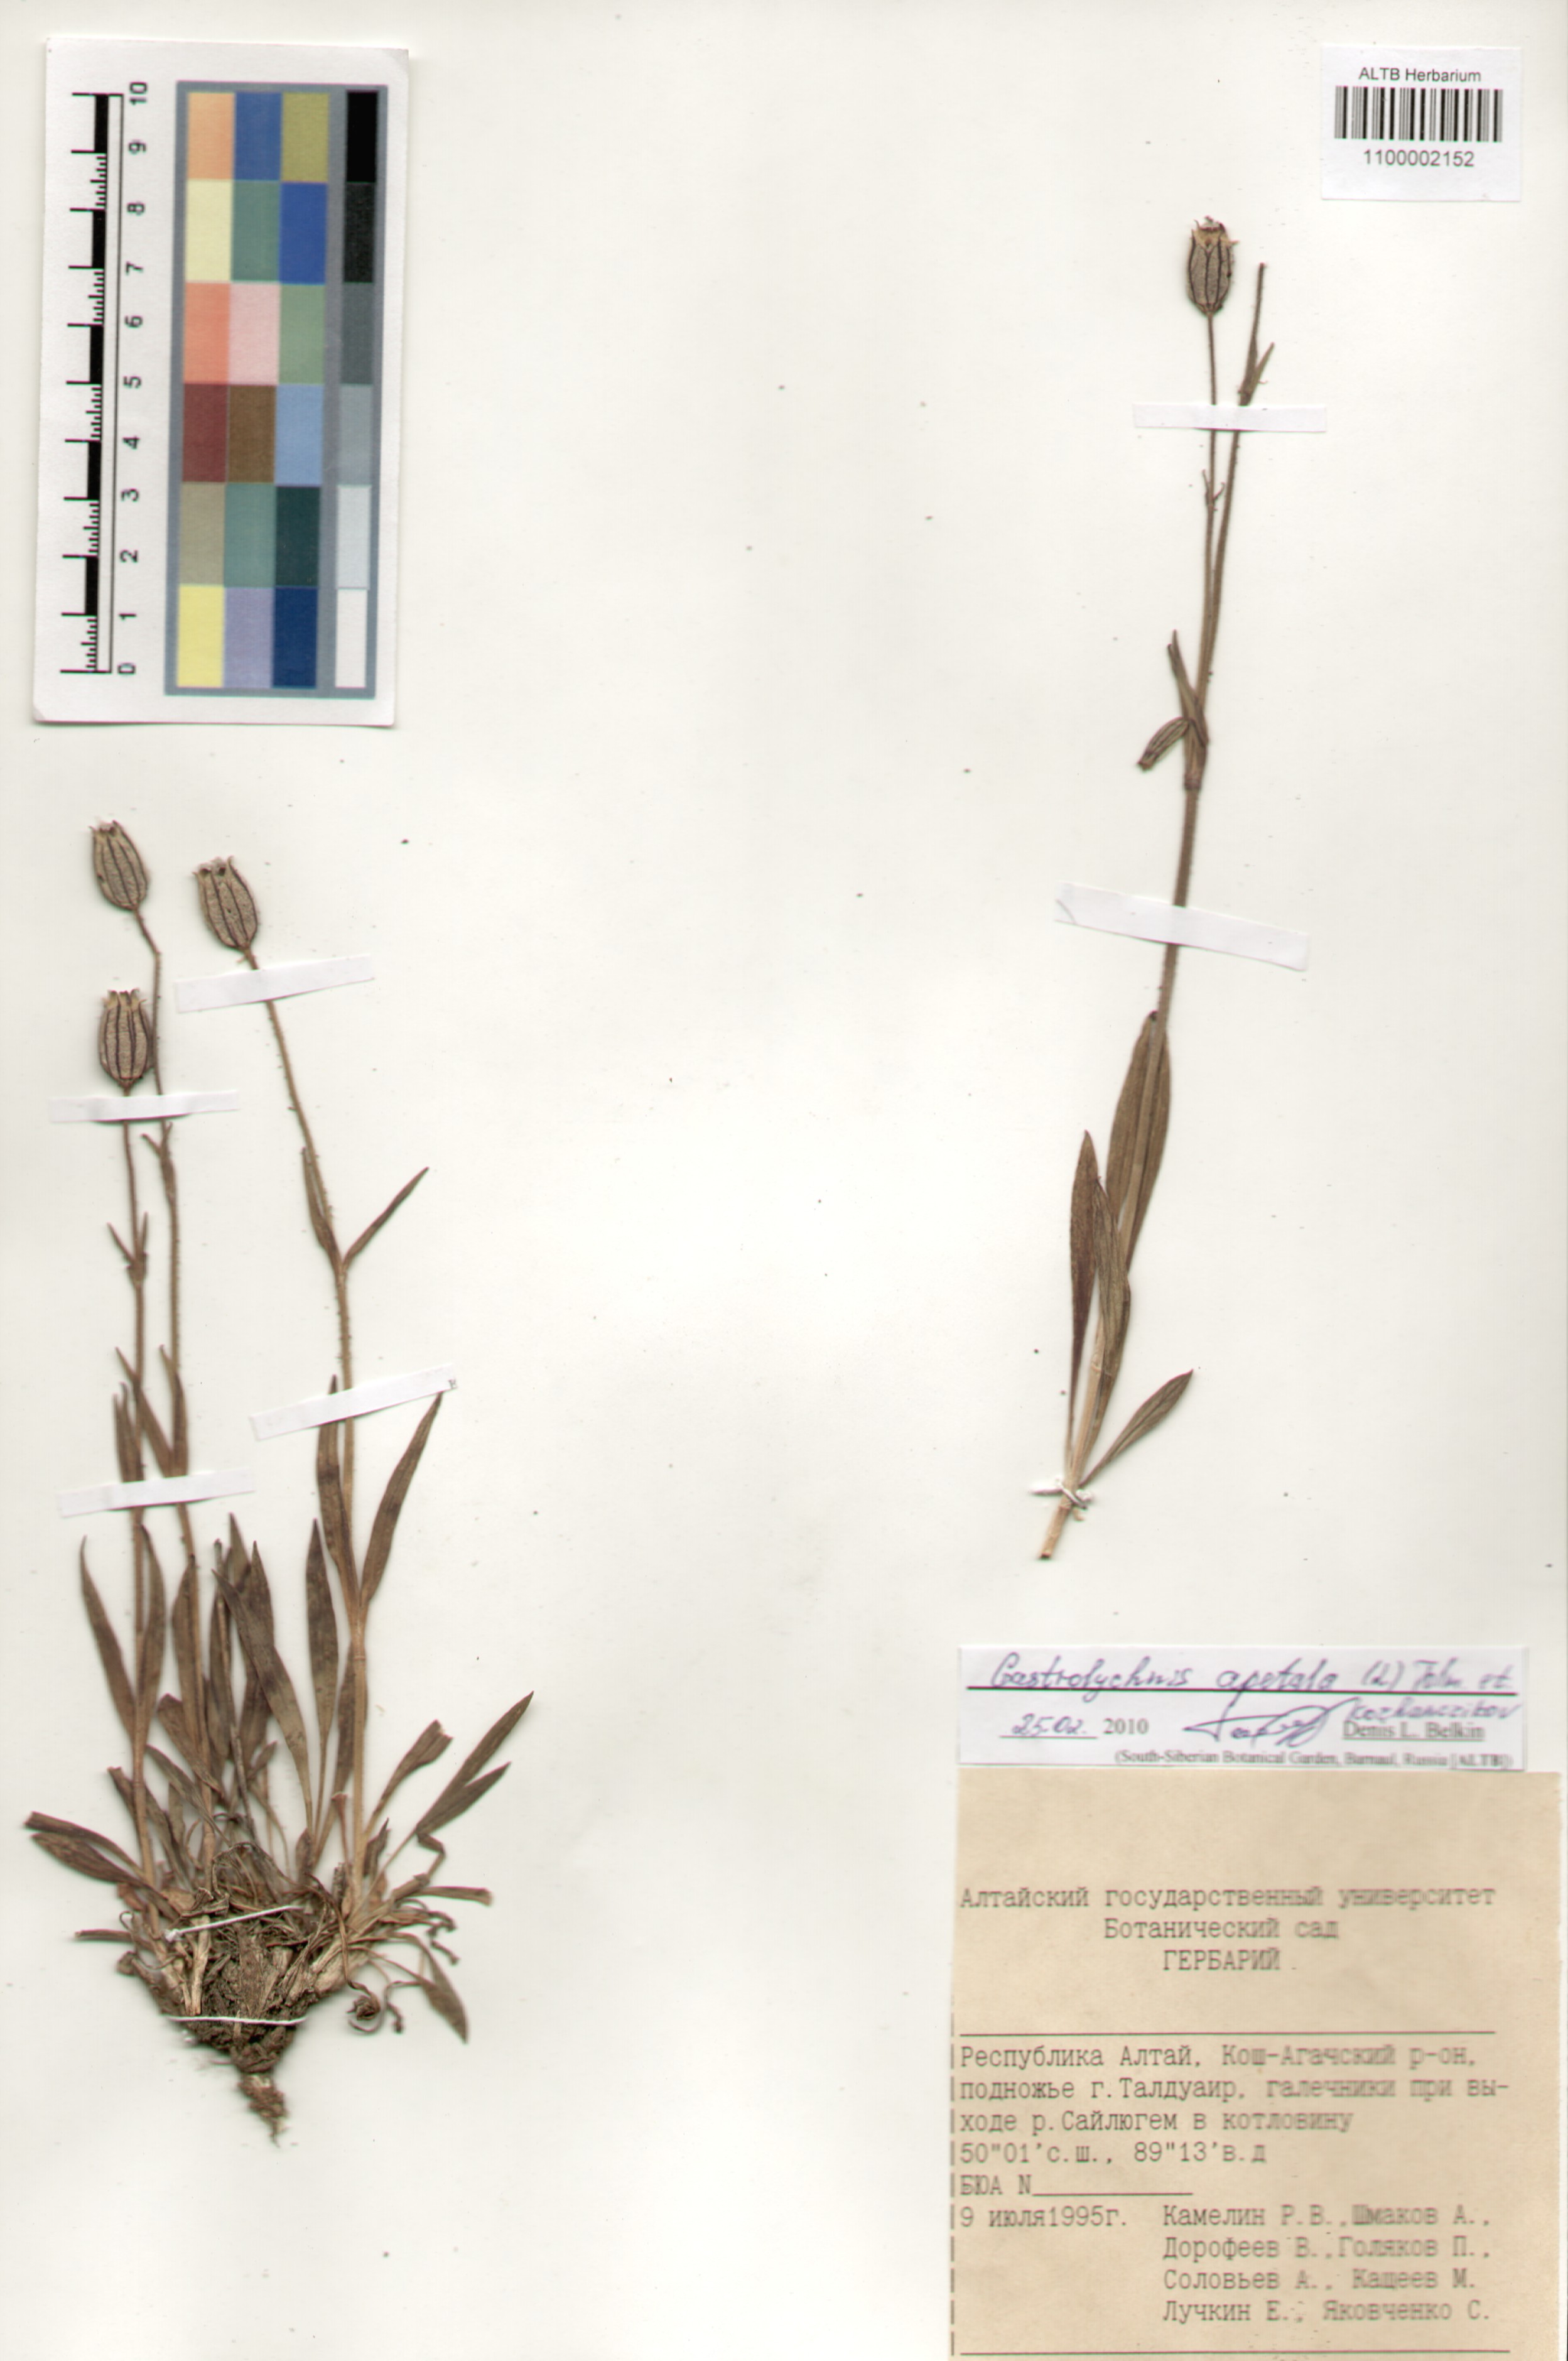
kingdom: Plantae
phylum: Tracheophyta
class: Magnoliopsida
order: Caryophyllales
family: Caryophyllaceae
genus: Silene
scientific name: Silene wahlbergella
